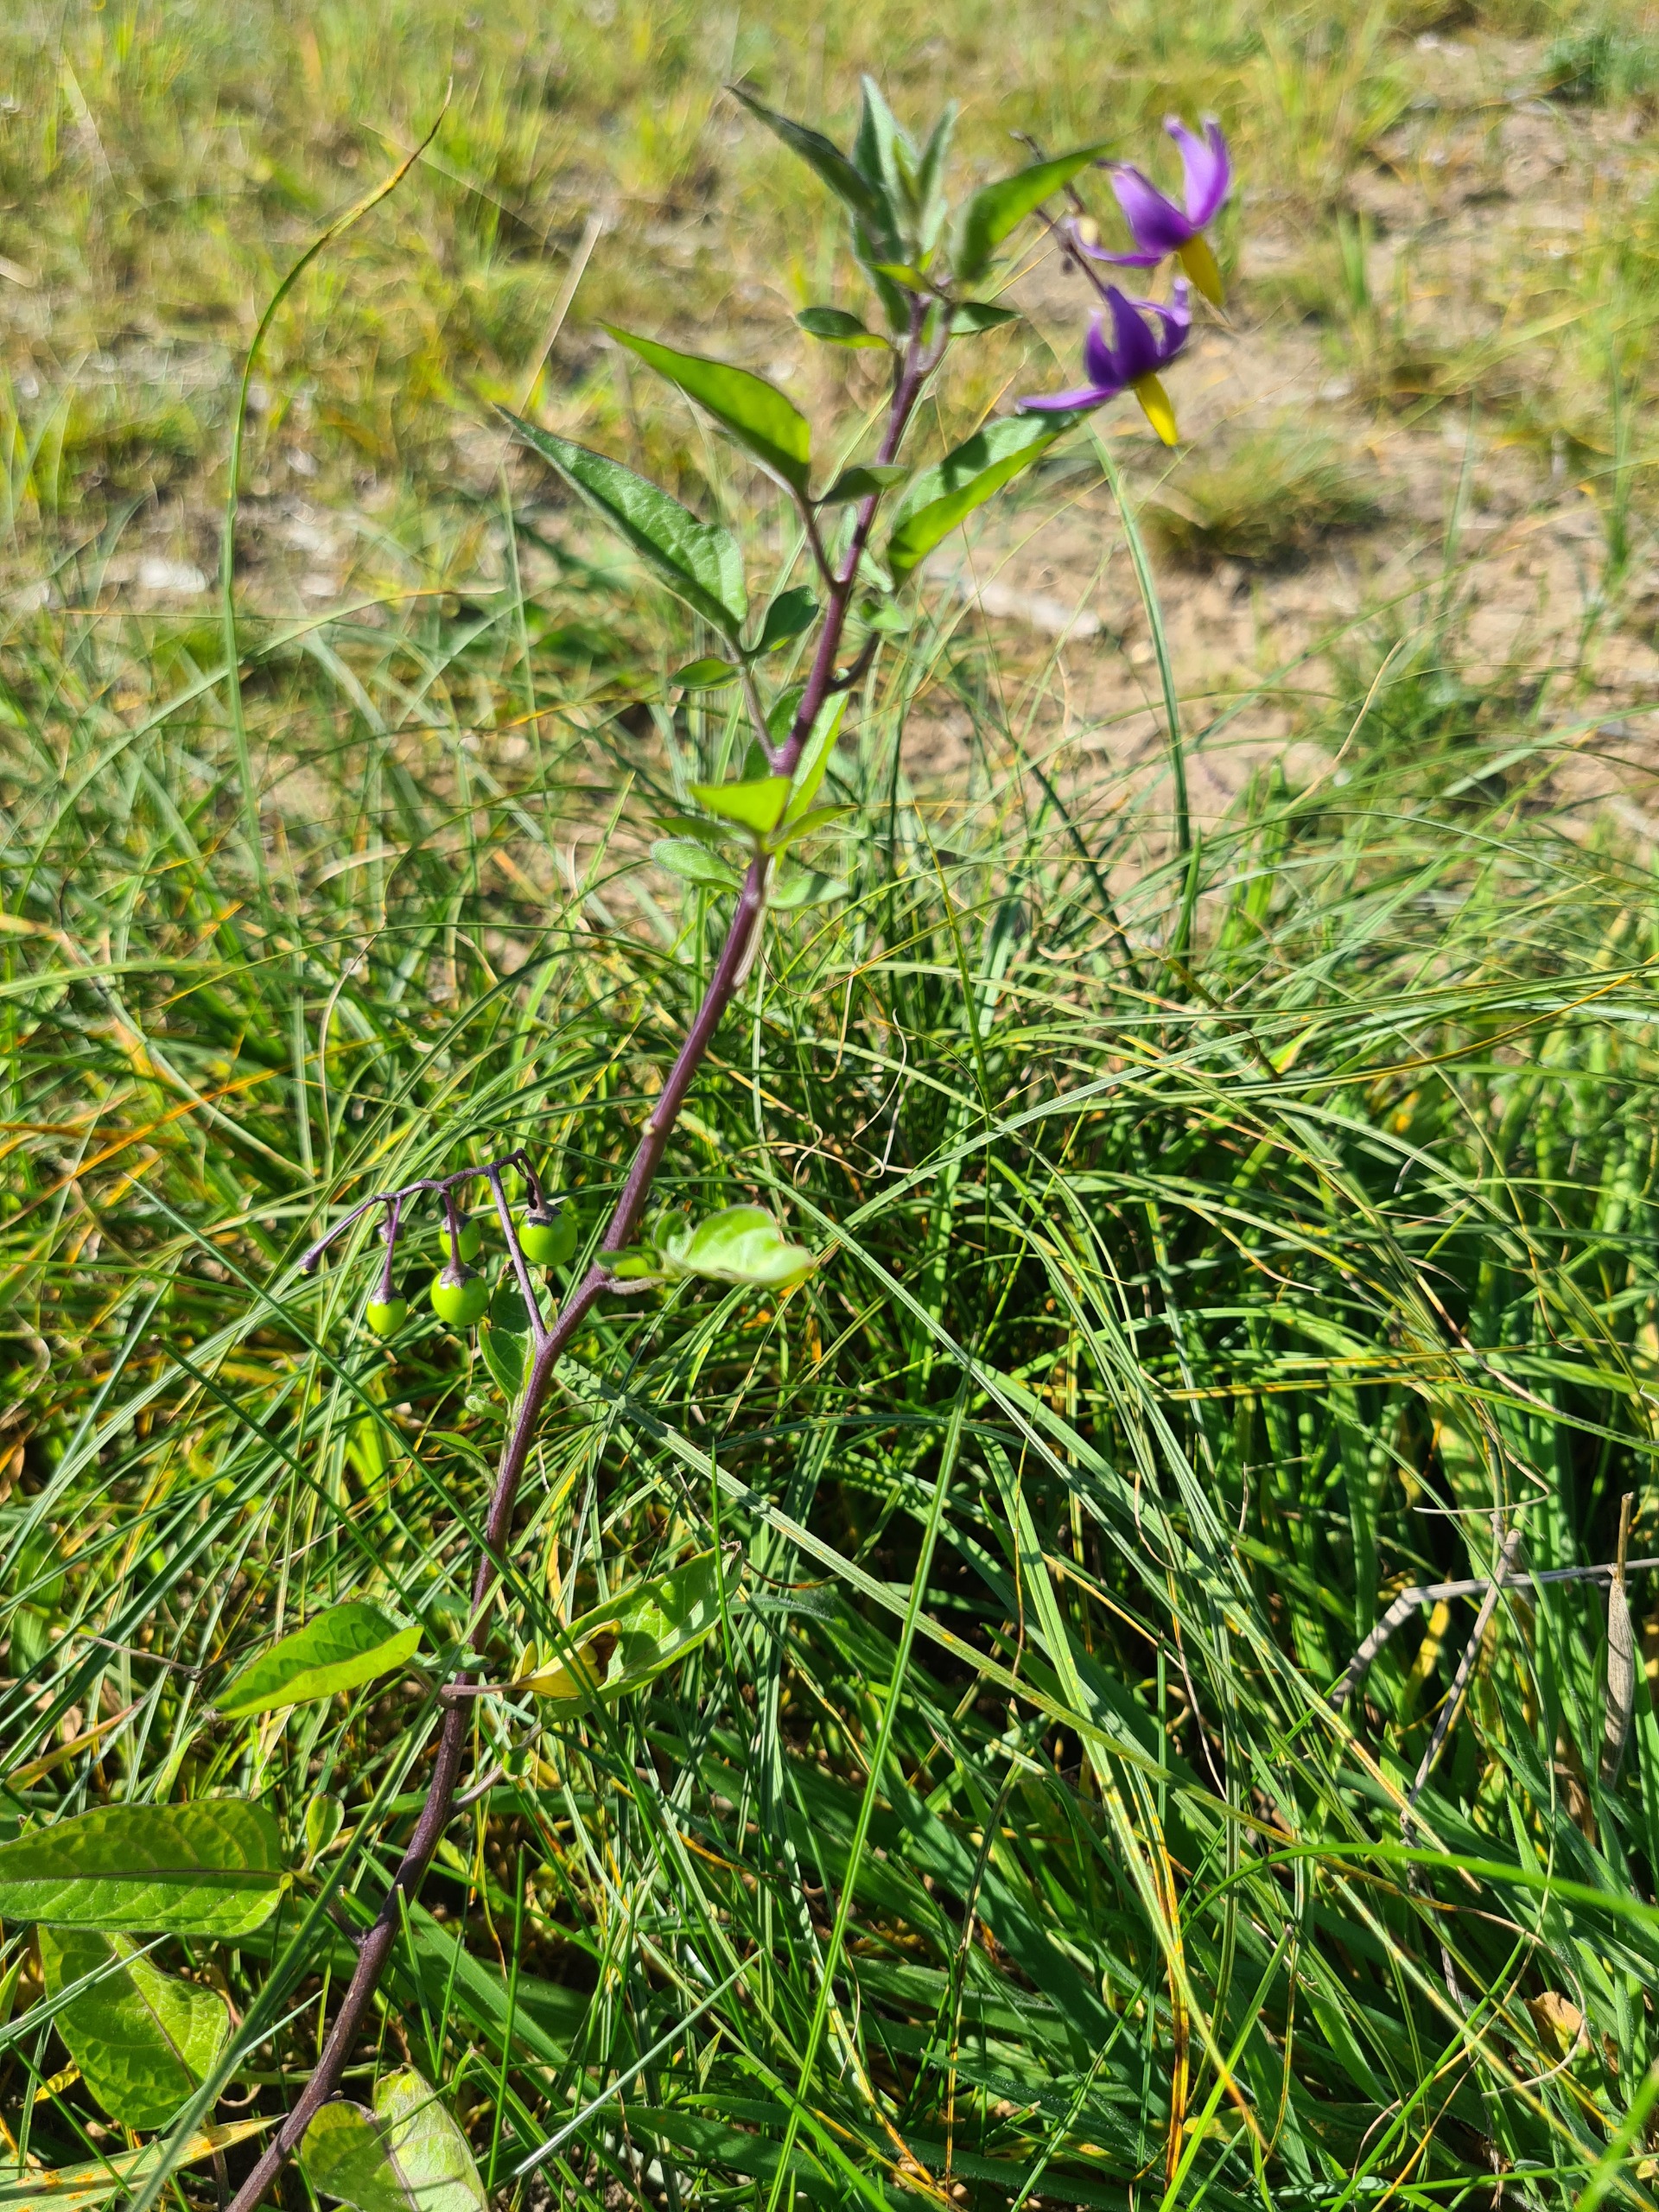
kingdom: Plantae
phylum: Tracheophyta
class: Magnoliopsida
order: Solanales
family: Solanaceae
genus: Solanum
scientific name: Solanum dulcamara
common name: Bittersød natskygge
